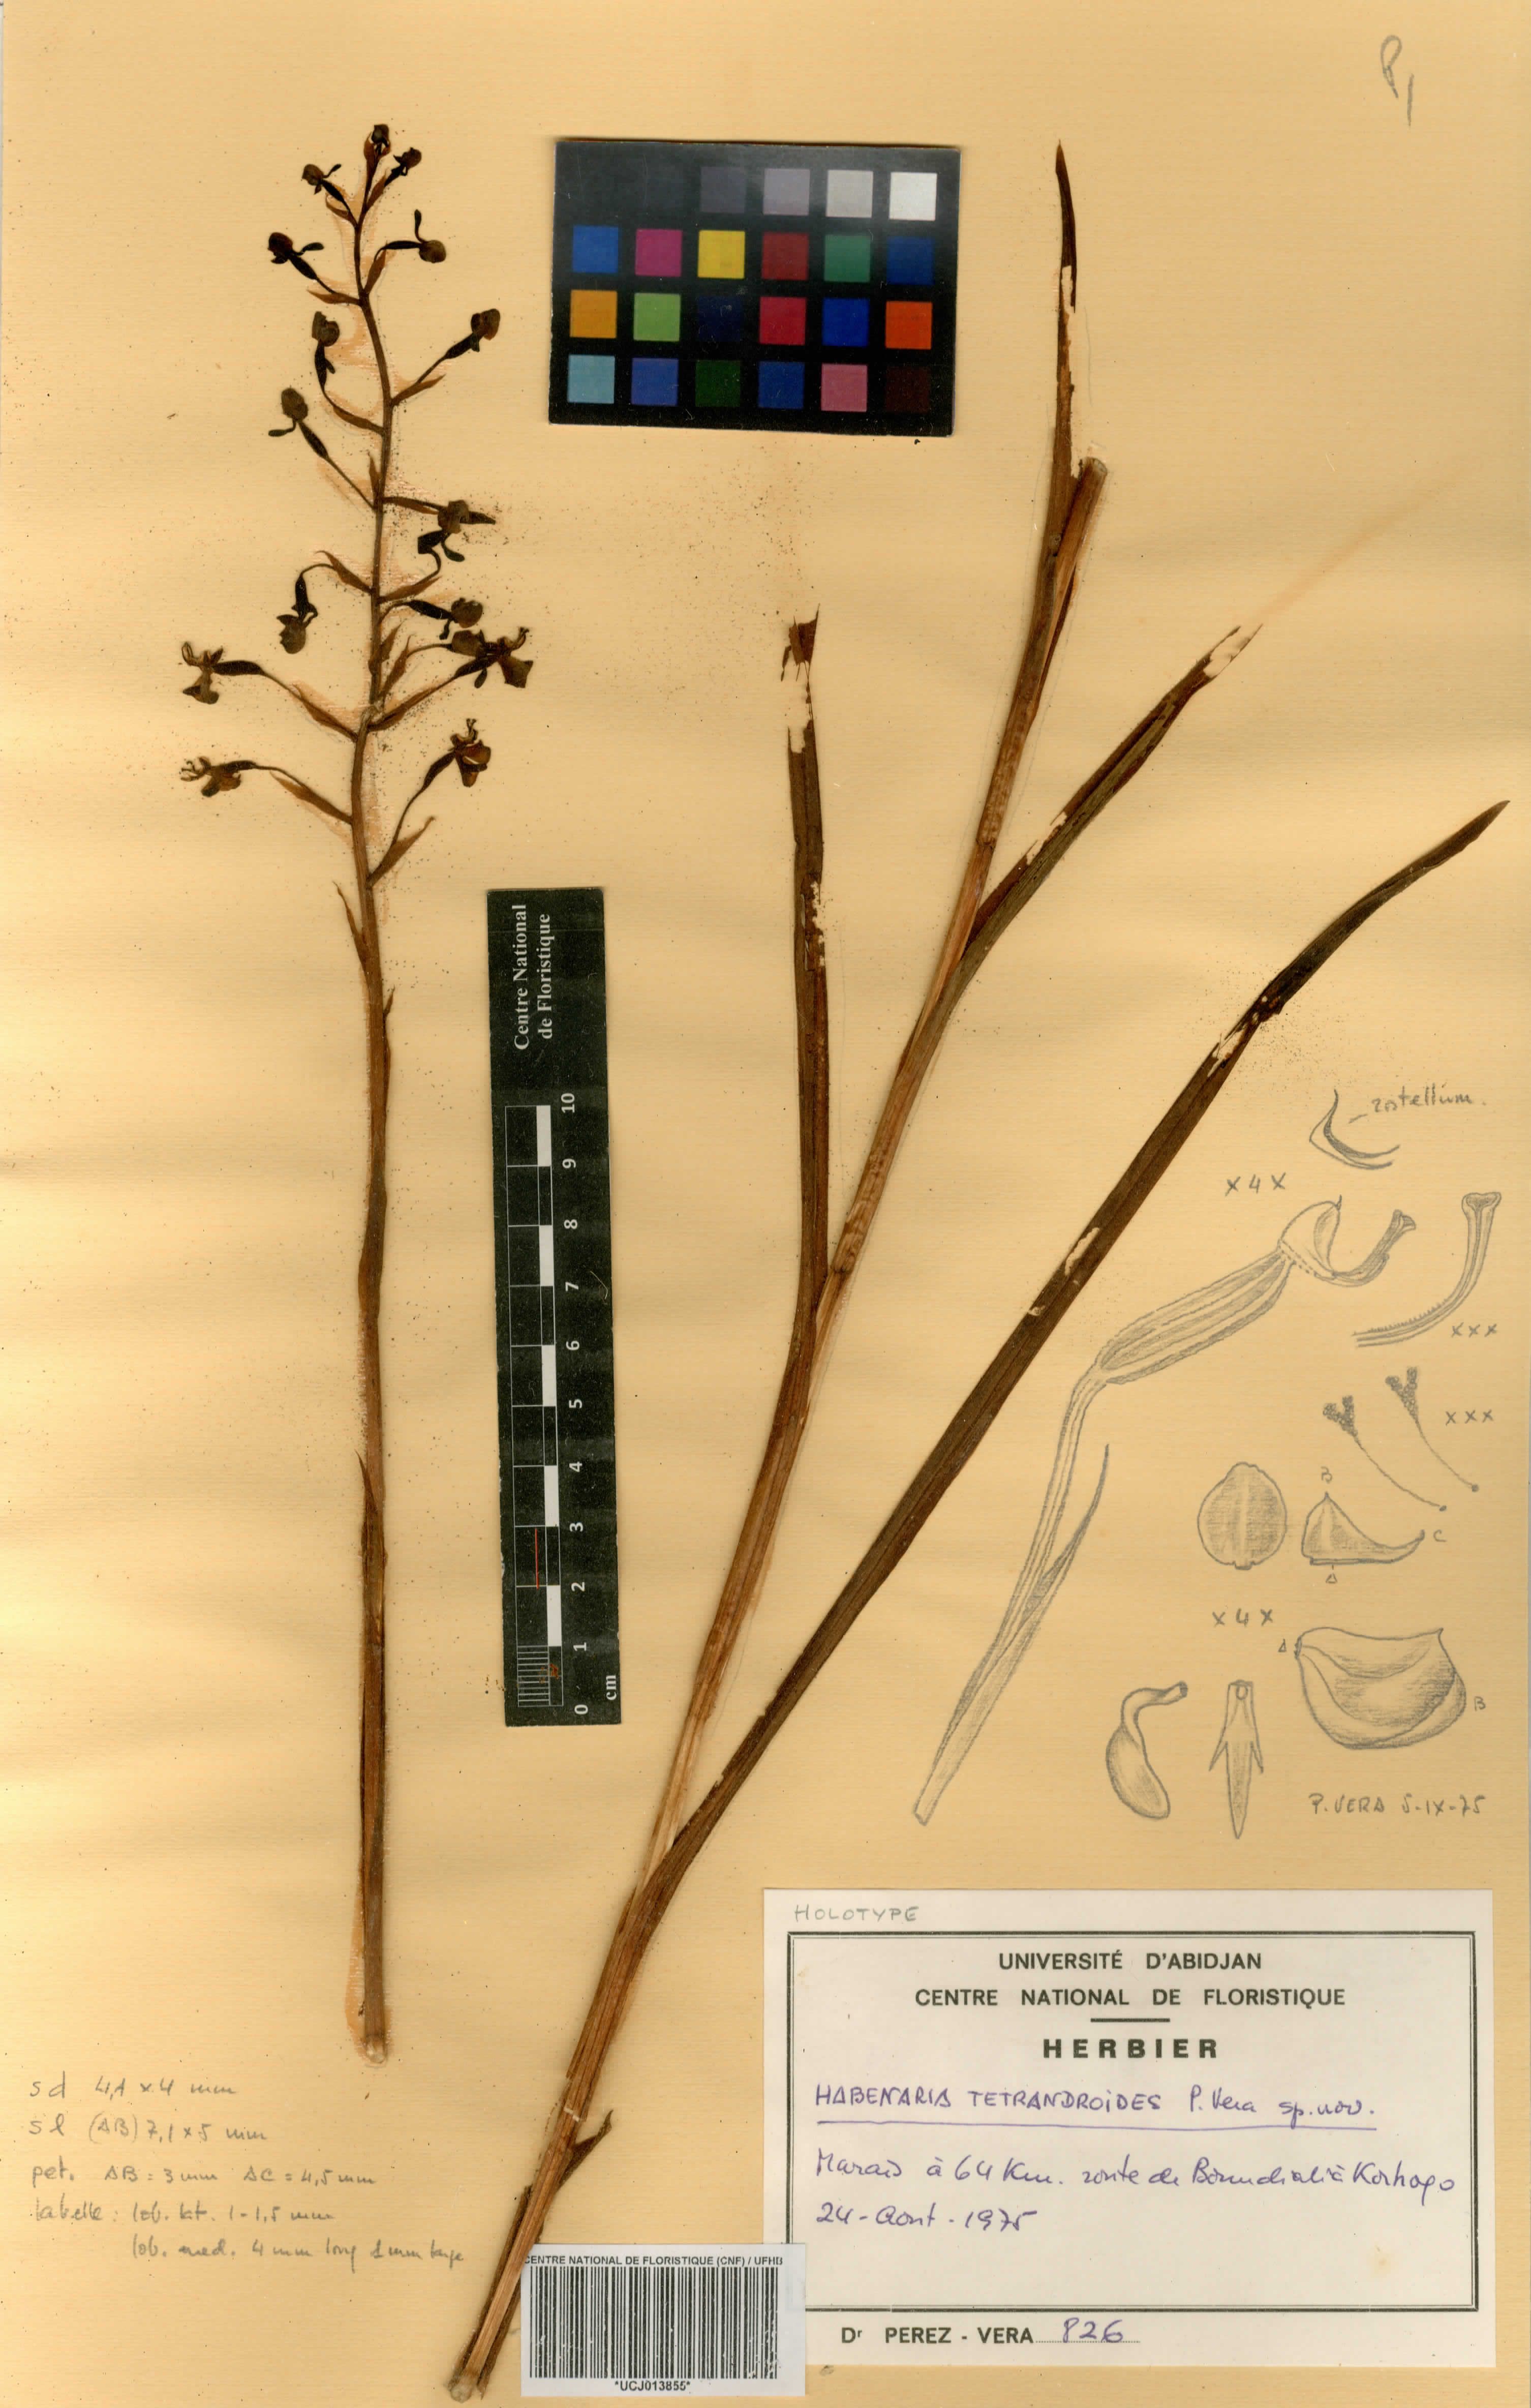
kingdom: Plantae
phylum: Tracheophyta
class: Liliopsida
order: Asparagales
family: Orchidaceae
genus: Habenaria
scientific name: Habenaria
